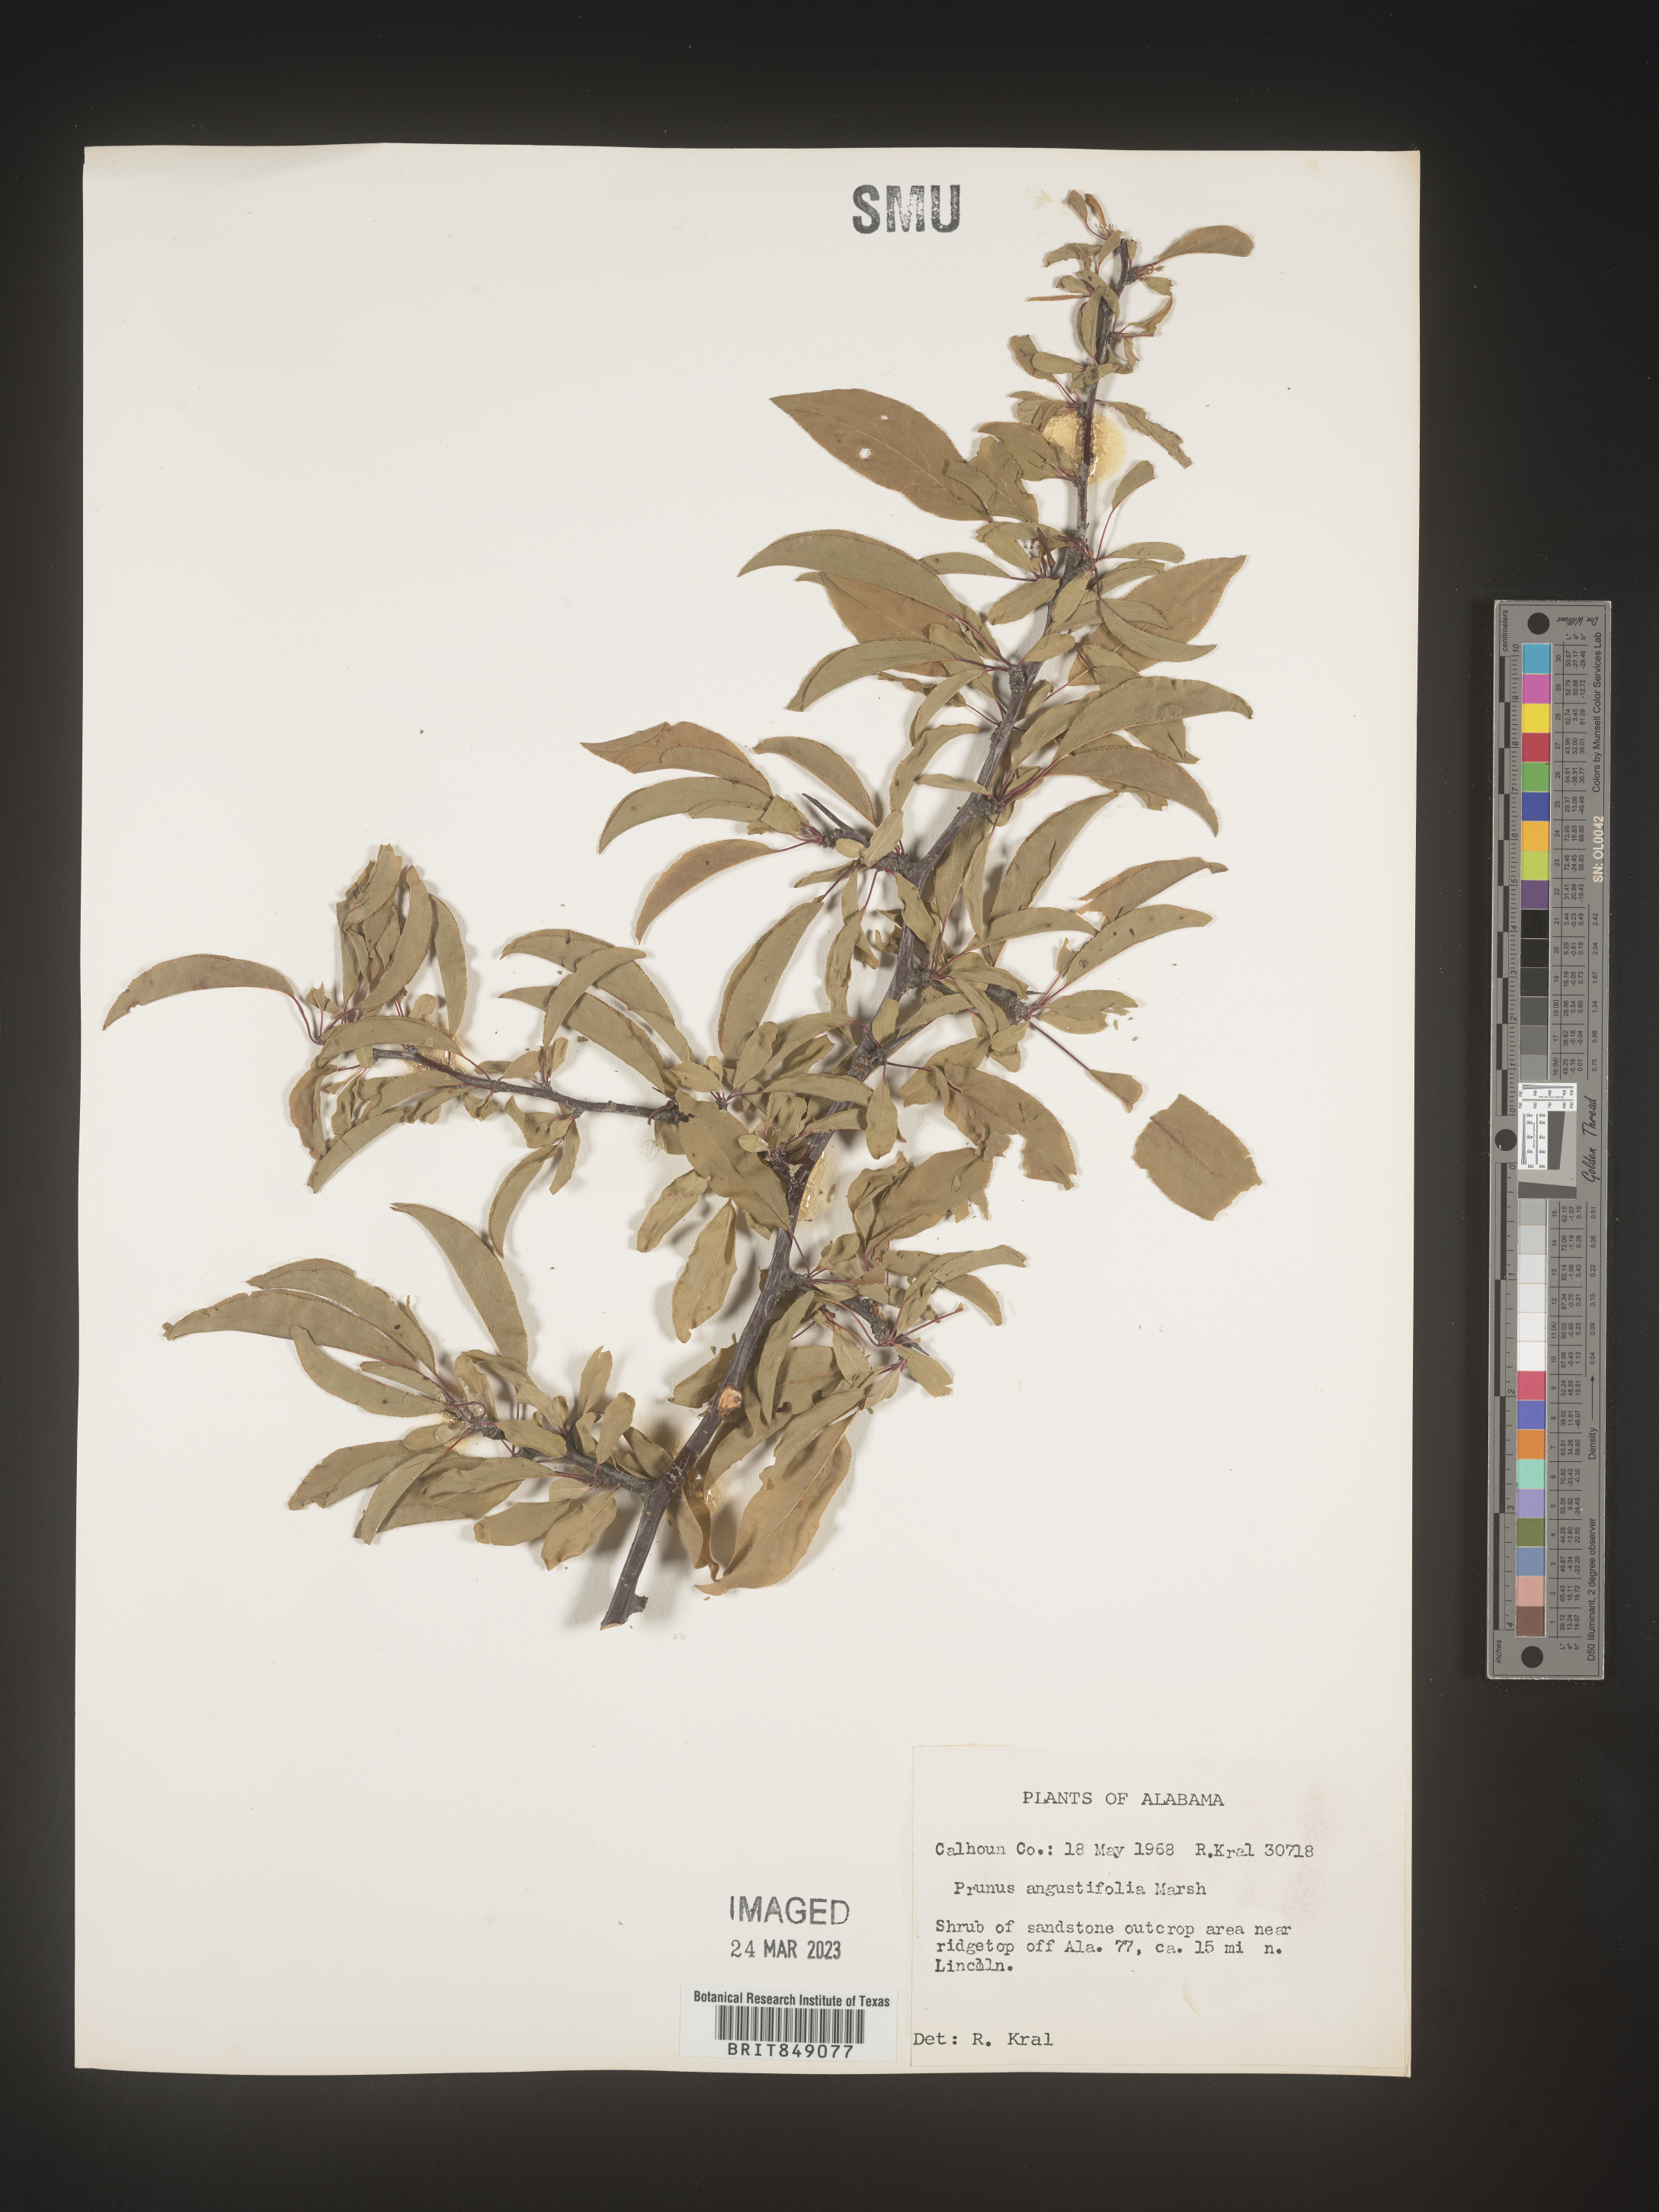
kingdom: Plantae
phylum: Tracheophyta
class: Magnoliopsida
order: Rosales
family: Rosaceae
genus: Prunus
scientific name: Prunus angustifolia
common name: Cherokee plum
